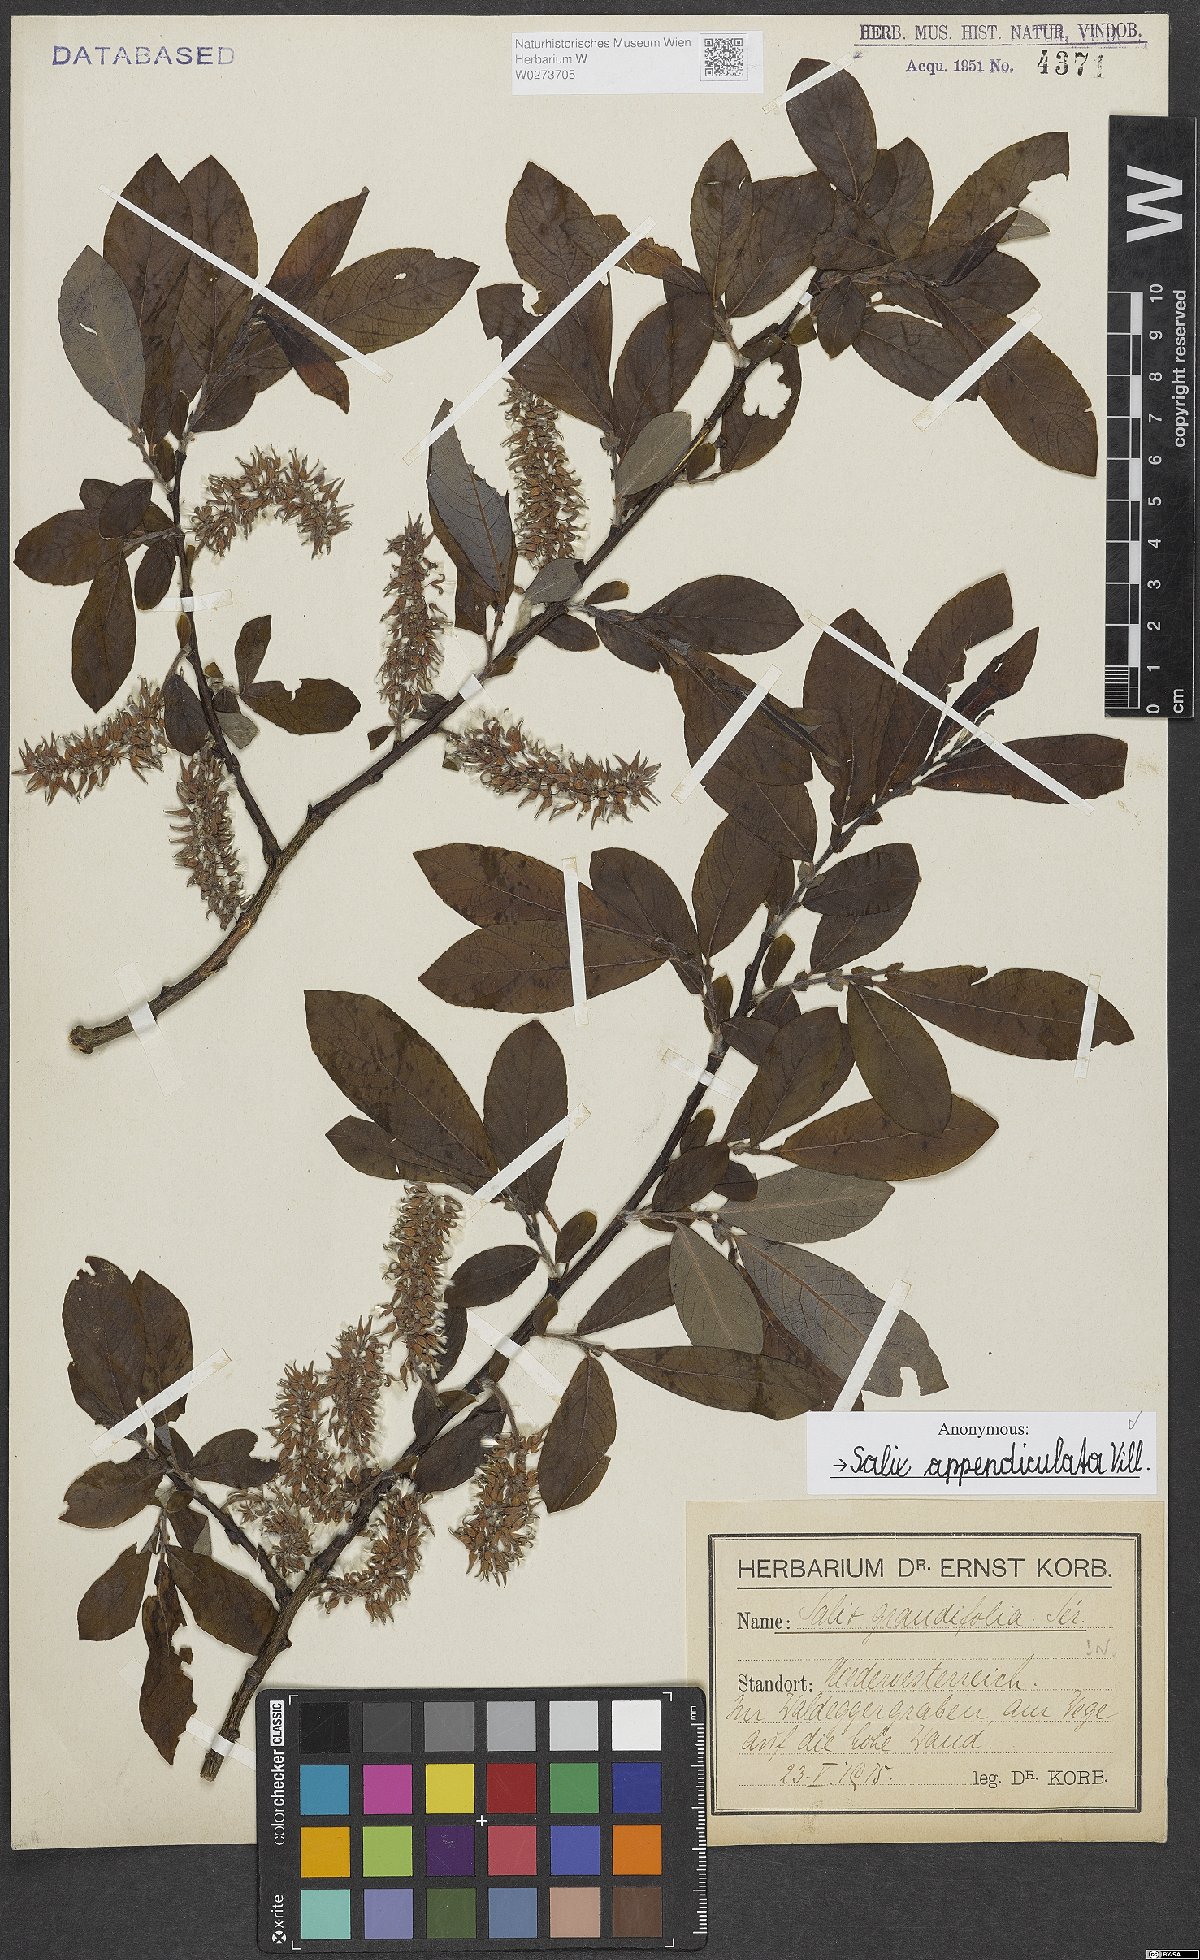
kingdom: Plantae
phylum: Tracheophyta
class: Magnoliopsida
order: Malpighiales
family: Salicaceae
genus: Salix
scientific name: Salix appendiculata
